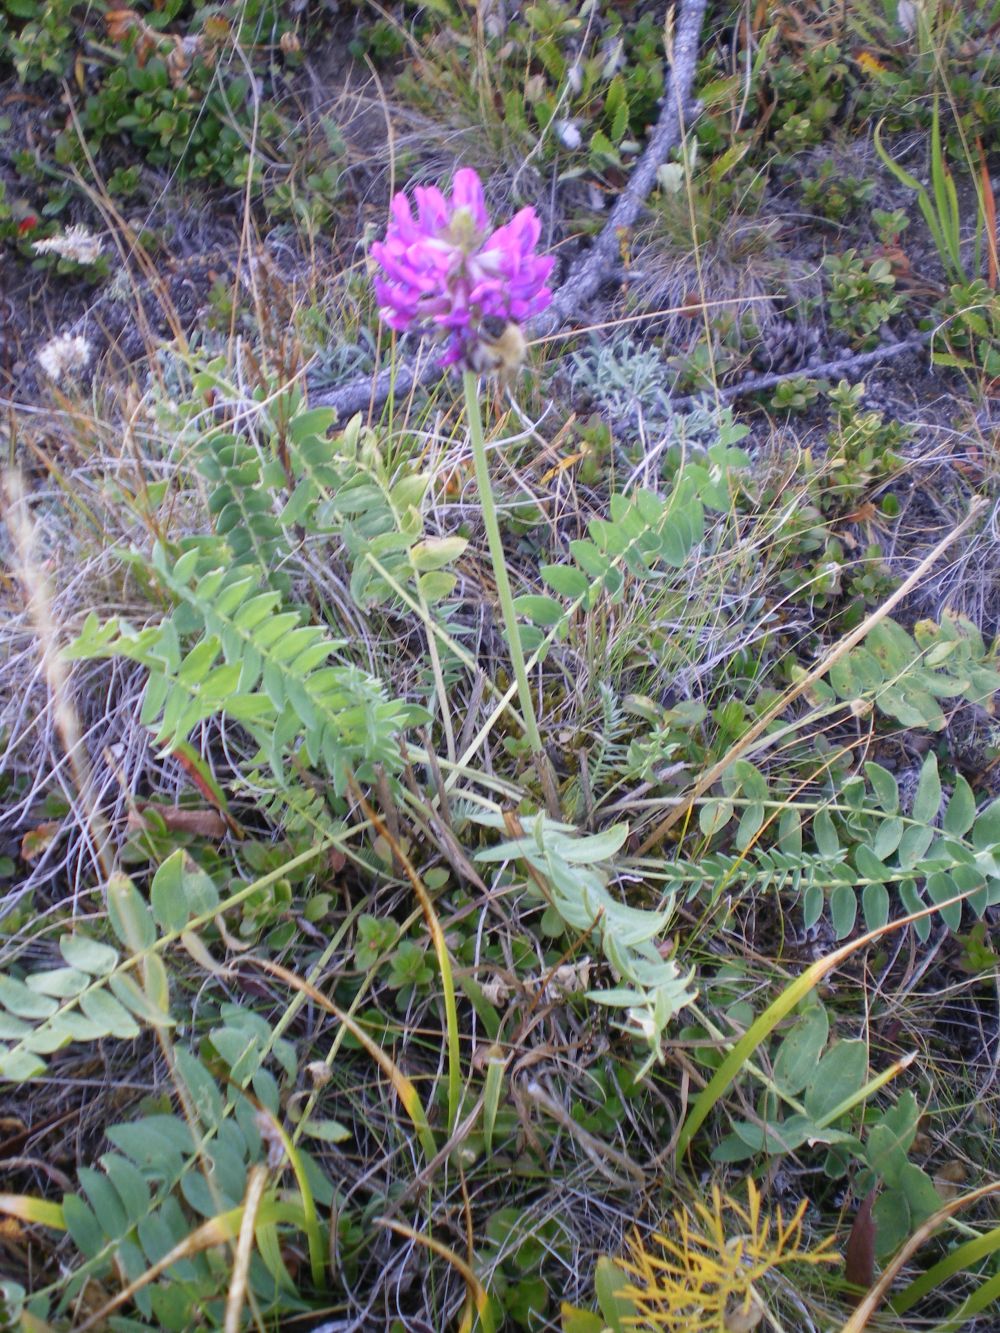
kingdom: Plantae
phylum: Tracheophyta
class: Magnoliopsida
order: Fabales
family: Fabaceae
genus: Oxytropis
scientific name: Oxytropis strobilacea
